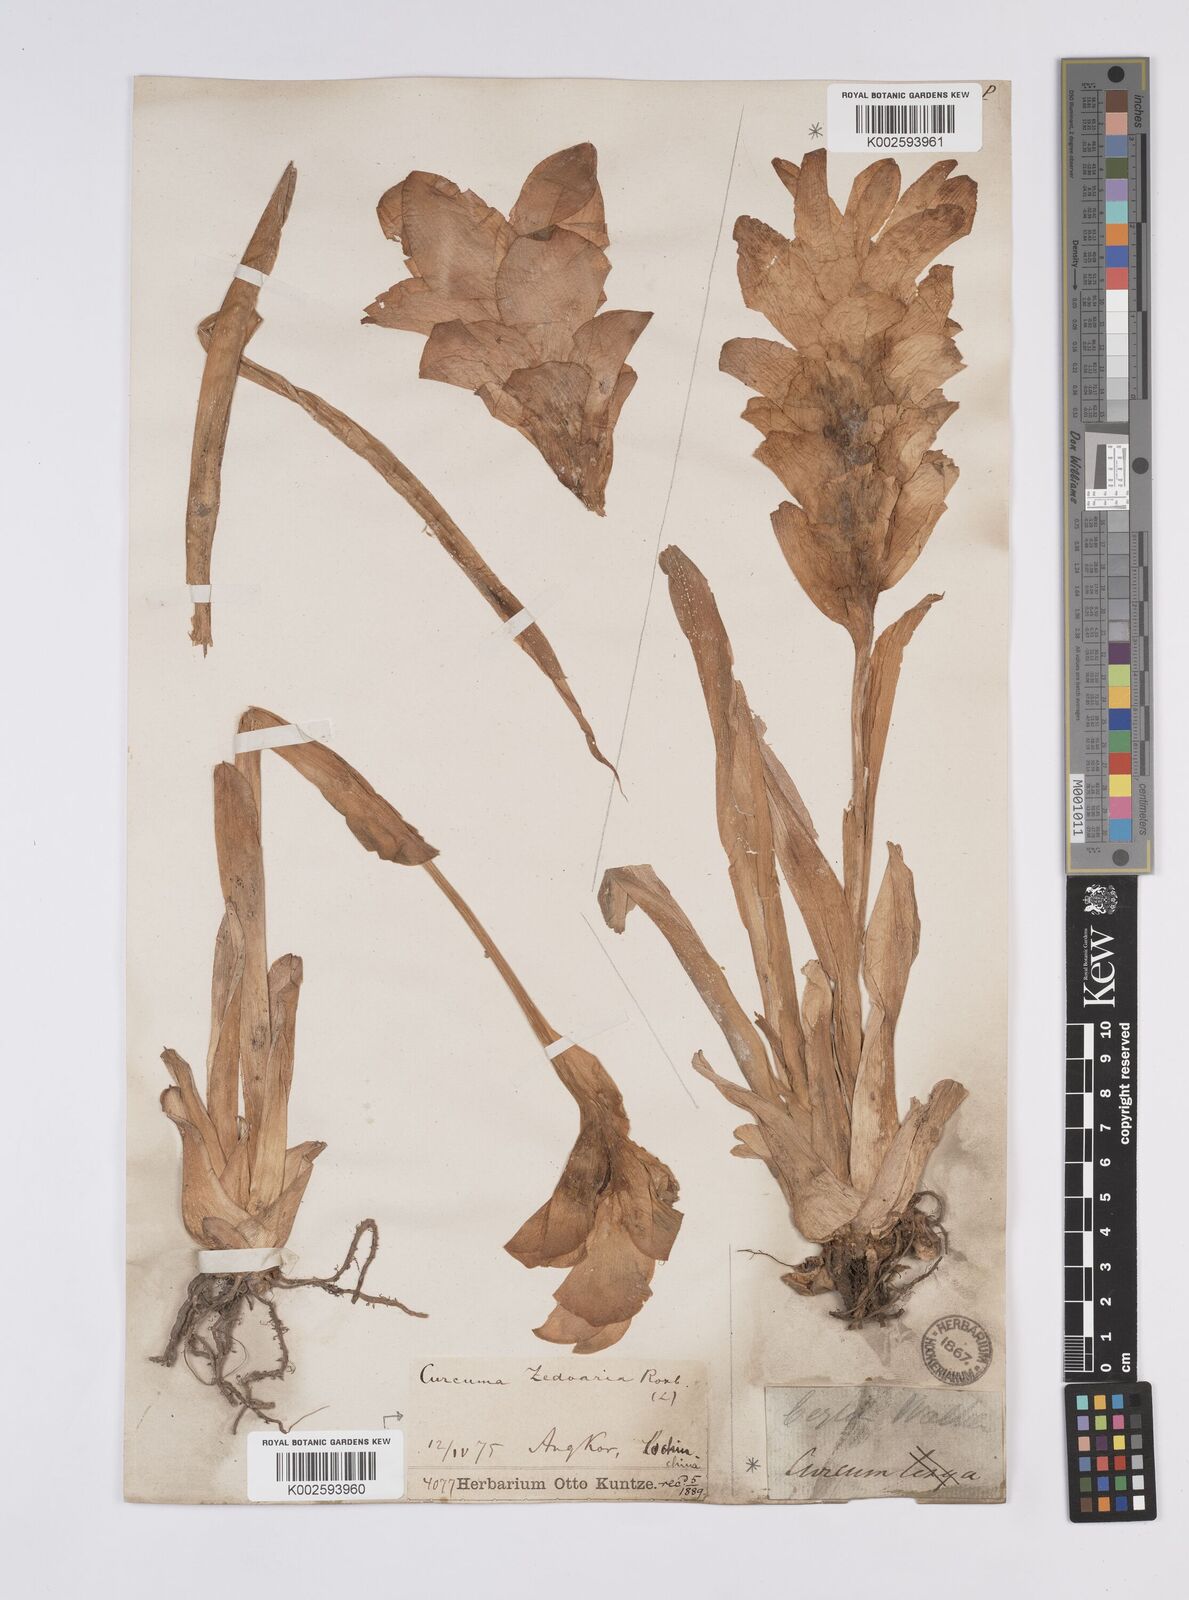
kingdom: Plantae
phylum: Tracheophyta
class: Liliopsida
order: Zingiberales
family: Zingiberaceae
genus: Curcuma
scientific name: Curcuma aromatica
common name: Wild turmeric
